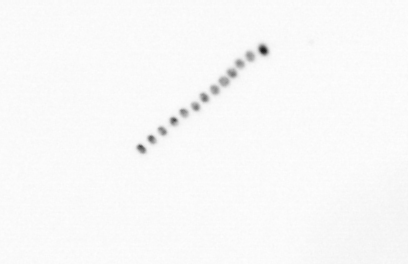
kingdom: Chromista
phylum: Ochrophyta
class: Bacillariophyceae
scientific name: Bacillariophyceae
